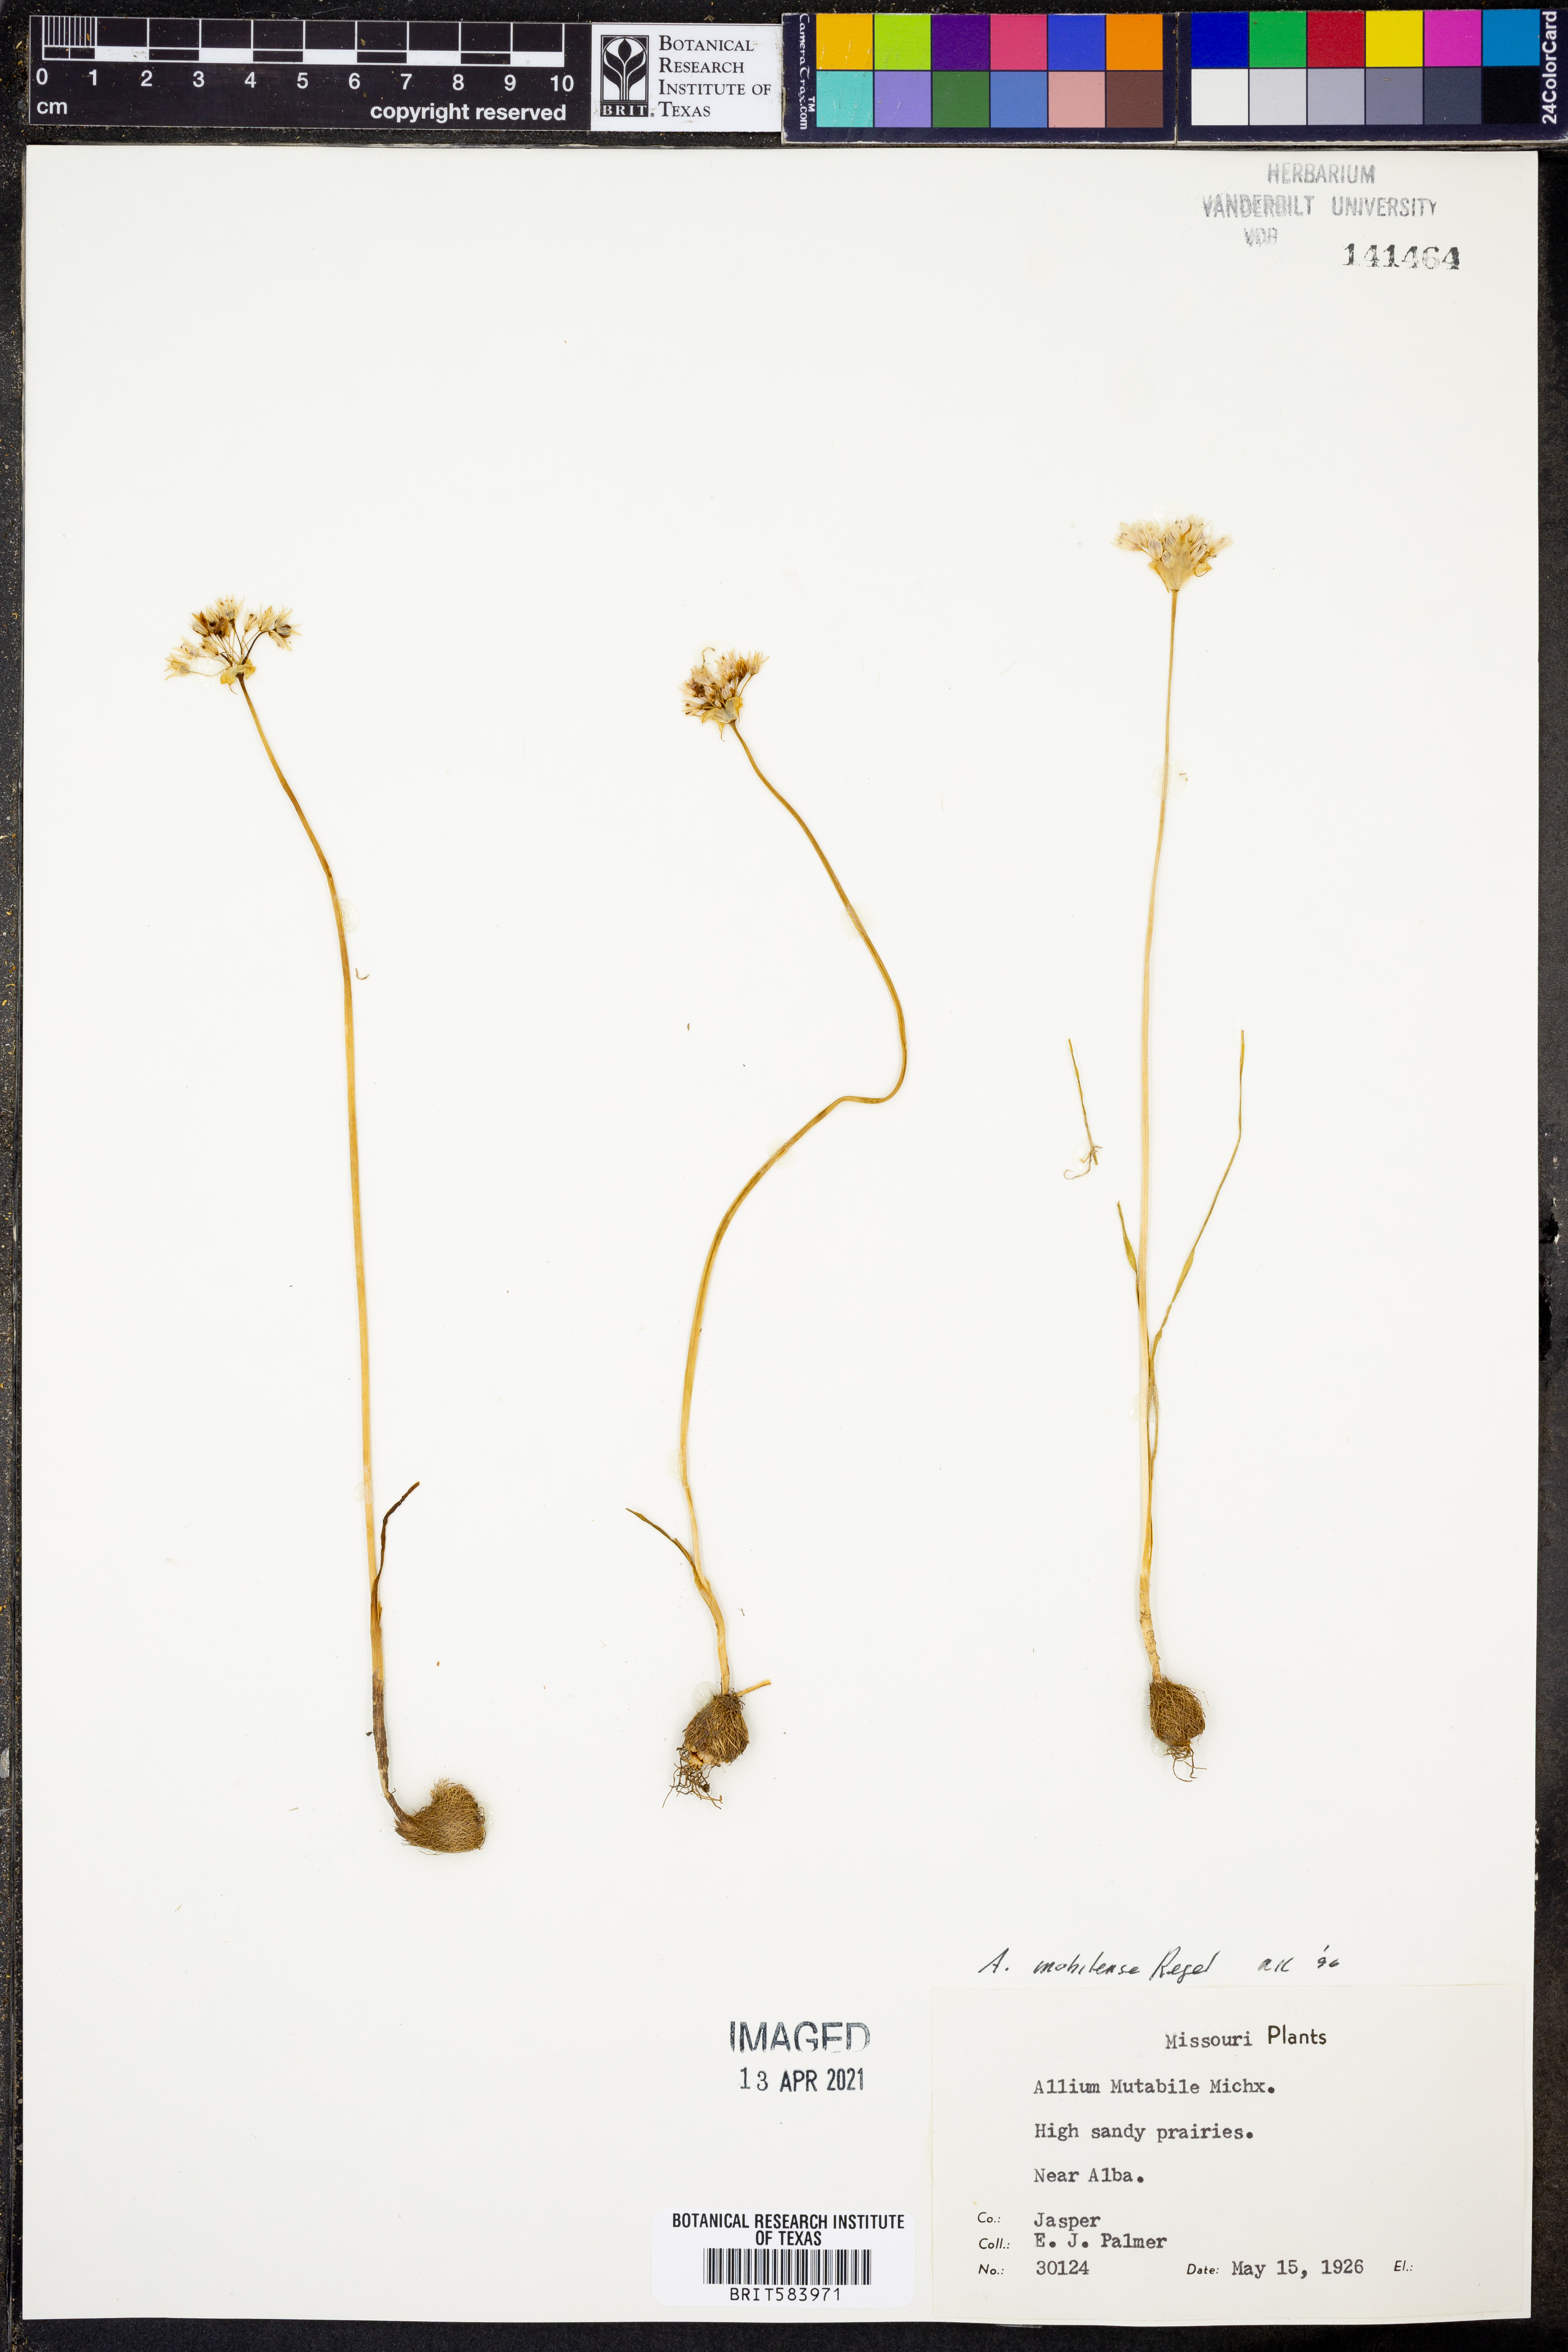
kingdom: Plantae
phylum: Tracheophyta
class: Liliopsida
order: Asparagales
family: Amaryllidaceae
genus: Allium
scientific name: Allium canadense
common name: Meadow garlic
